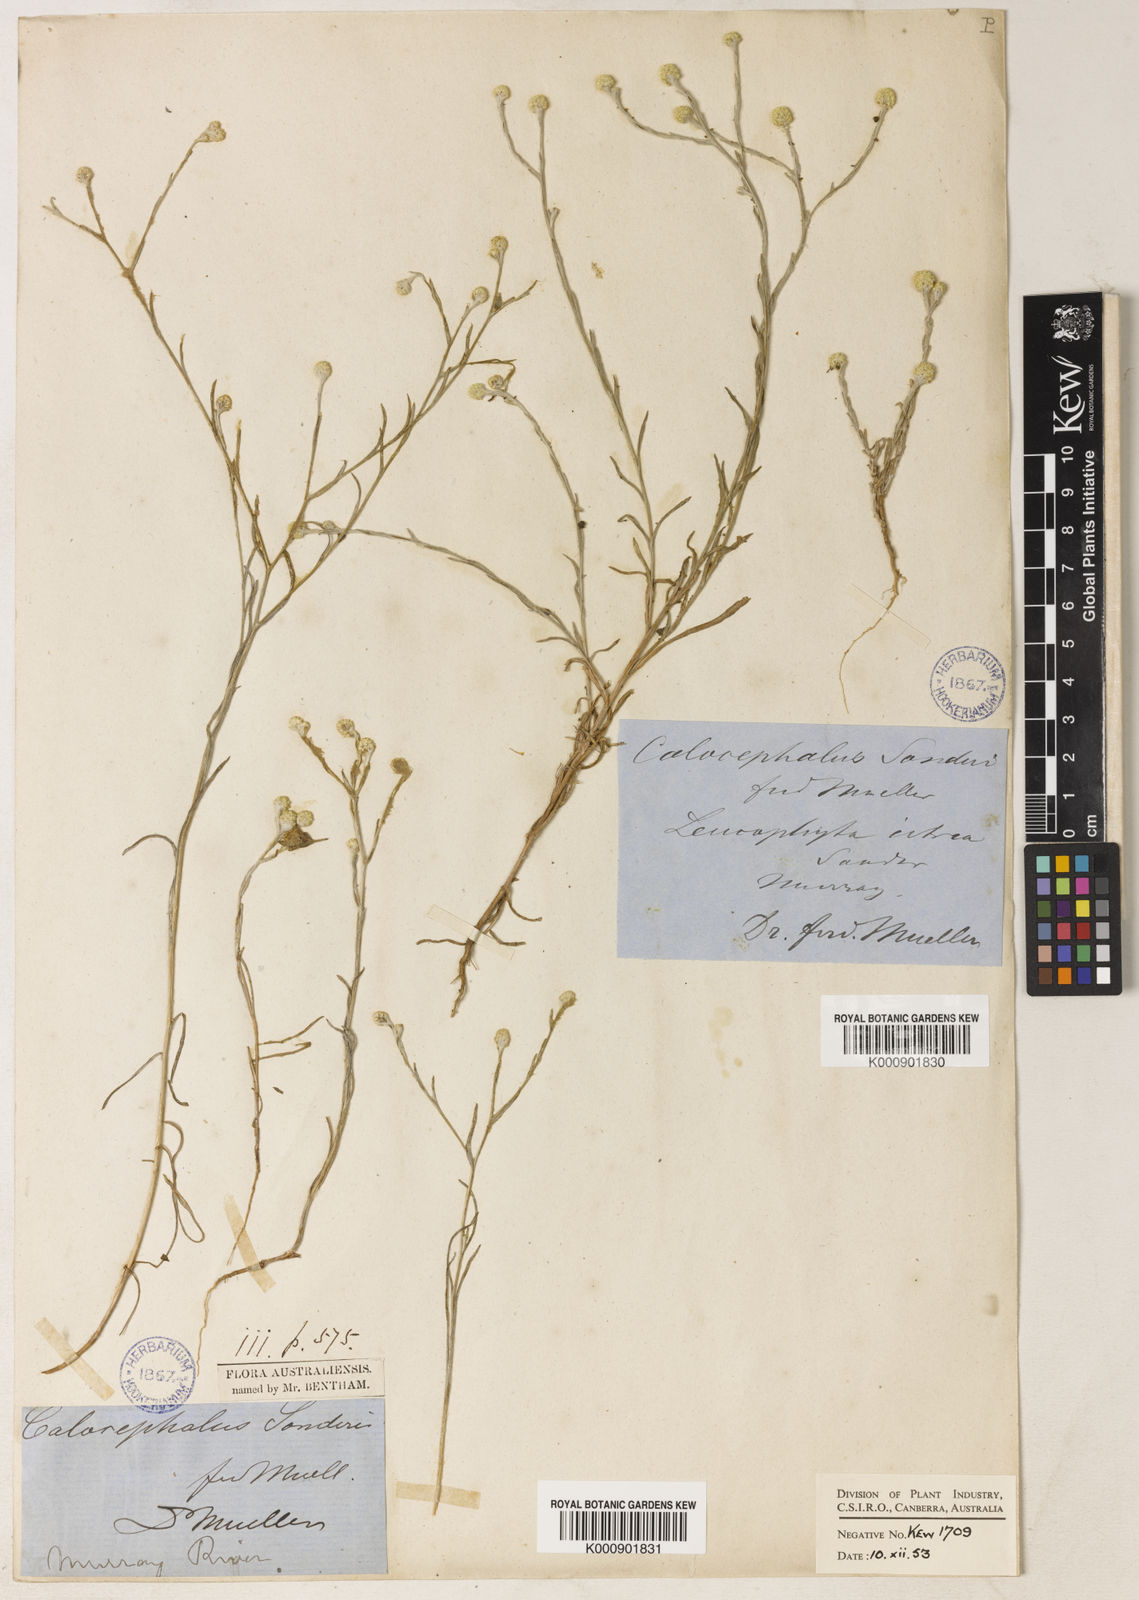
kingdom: Plantae
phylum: Tracheophyta
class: Magnoliopsida
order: Asterales
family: Asteraceae
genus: Calocephalus
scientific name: Calocephalus sonderi
